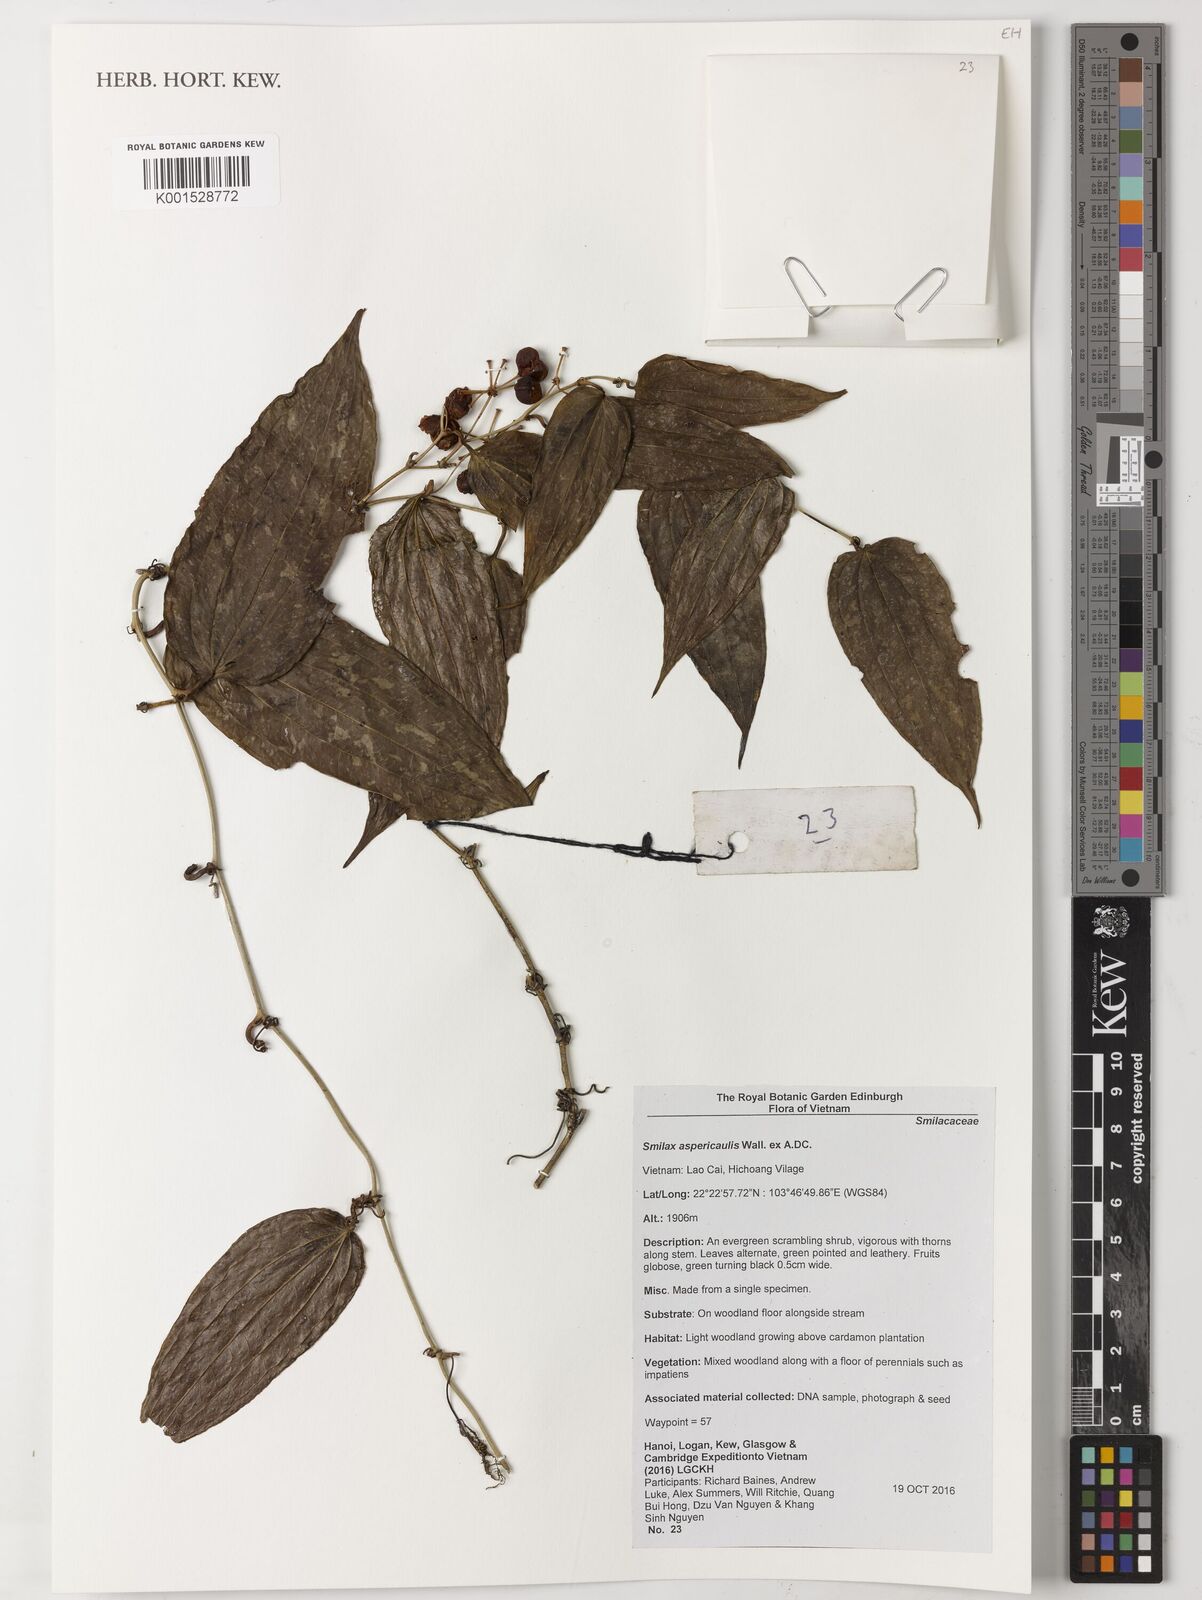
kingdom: Plantae
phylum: Tracheophyta
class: Liliopsida
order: Liliales
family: Smilacaceae
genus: Smilax
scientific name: Smilax aspericaulis
